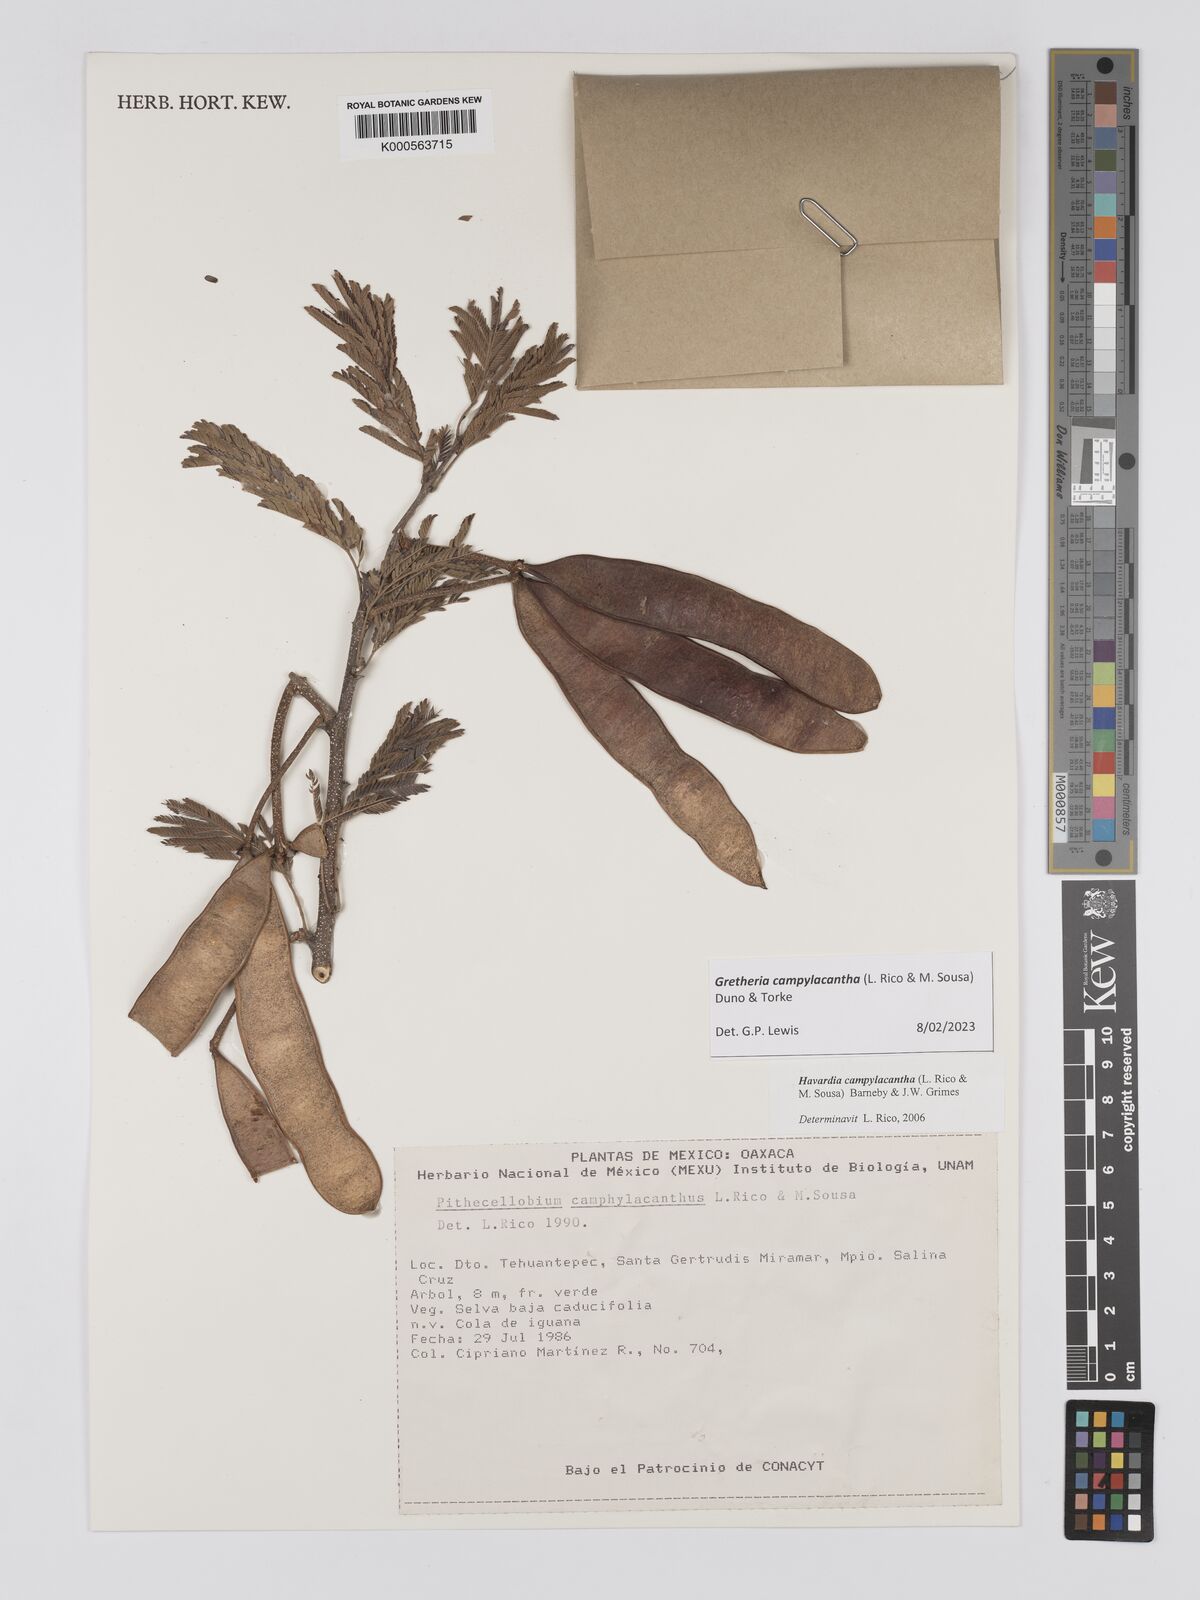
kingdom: Plantae
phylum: Tracheophyta
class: Magnoliopsida
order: Fabales
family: Fabaceae
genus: Havardia
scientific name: Havardia campylacantha
